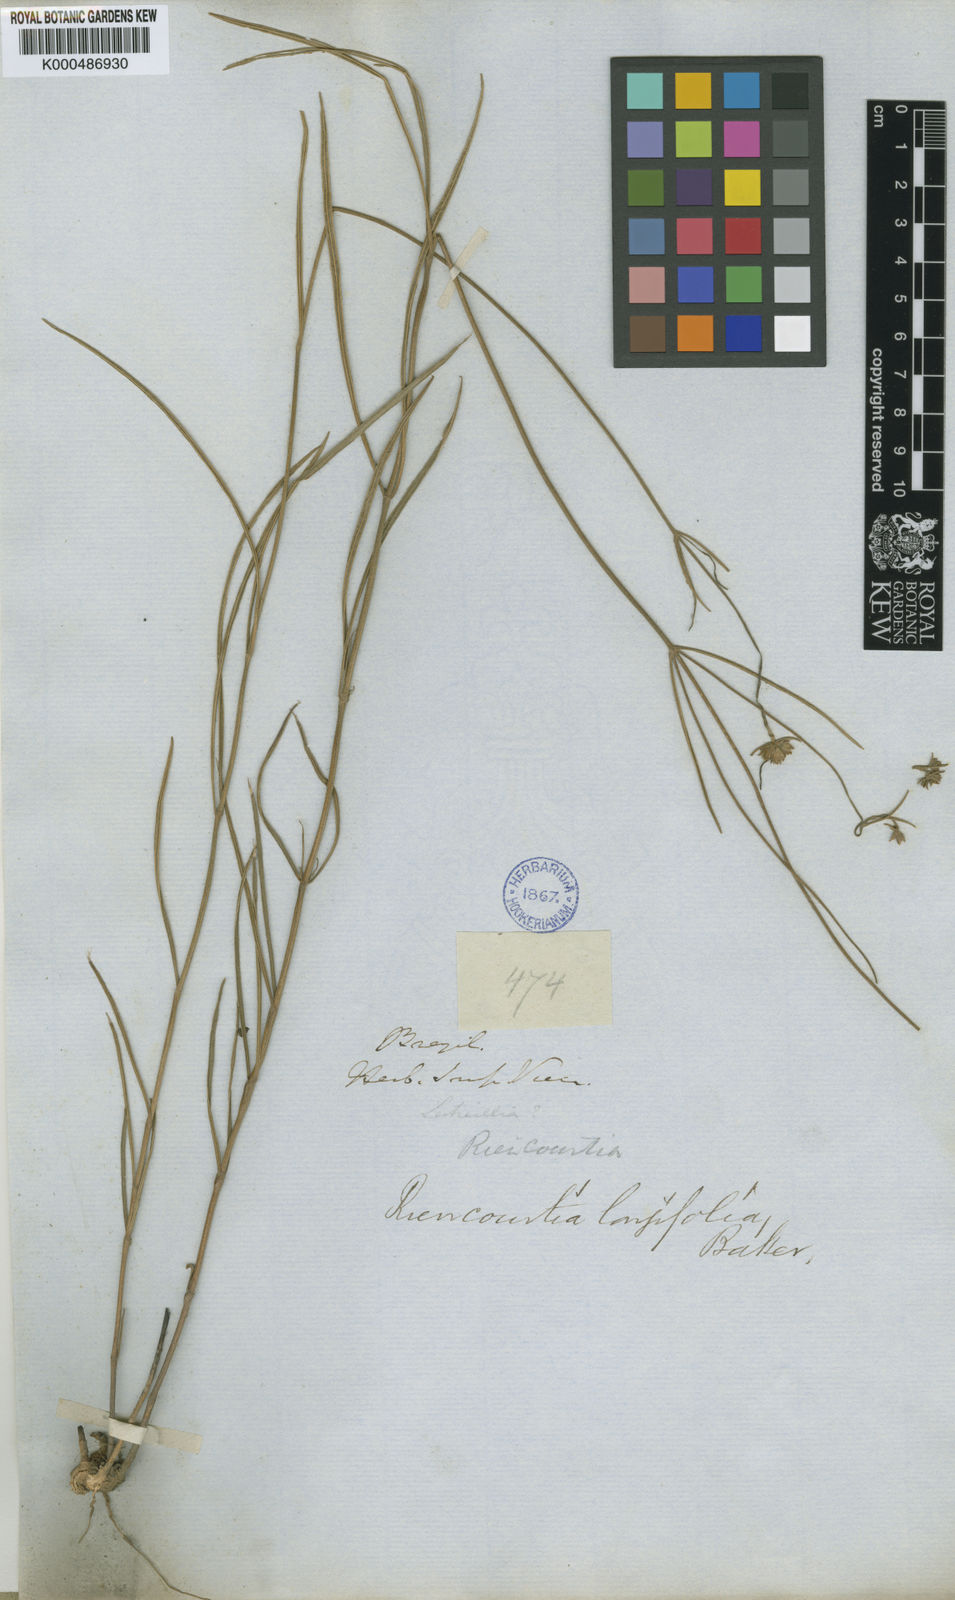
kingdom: Plantae
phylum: Tracheophyta
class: Magnoliopsida
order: Asterales
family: Asteraceae
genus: Riencourtia
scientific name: Riencourtia longifolia
